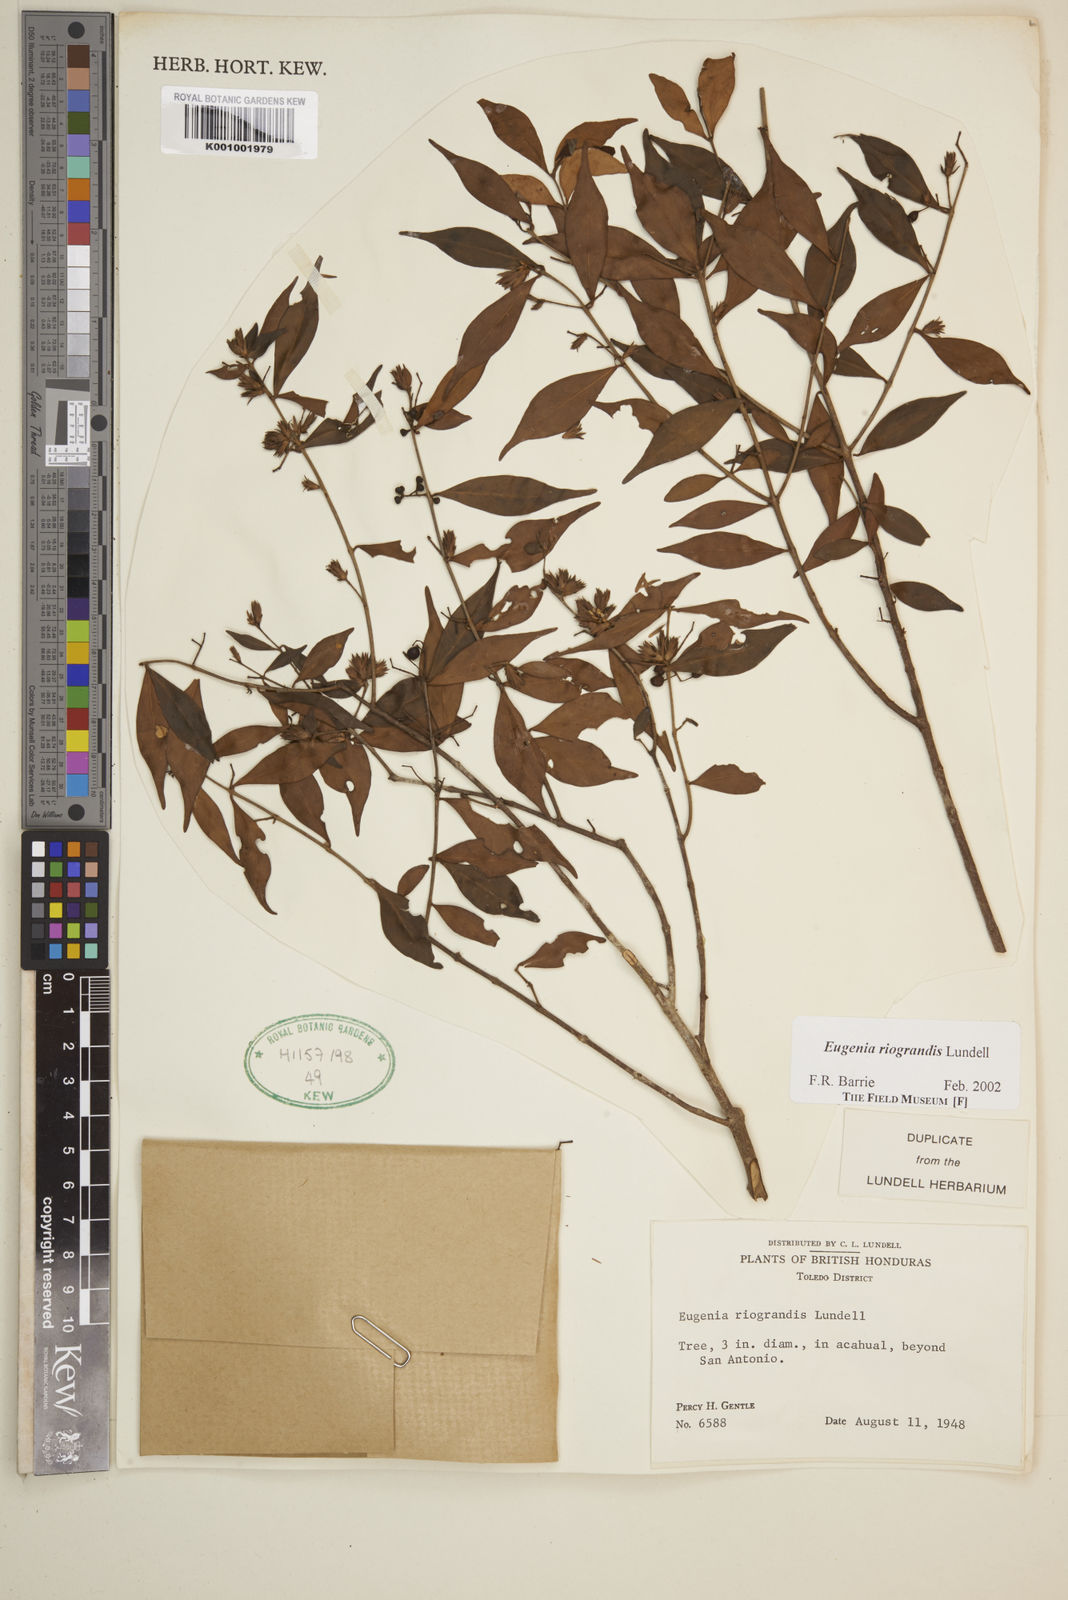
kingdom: Plantae
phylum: Tracheophyta
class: Magnoliopsida
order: Myrtales
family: Myrtaceae
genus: Eugenia
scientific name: Eugenia riograndis
